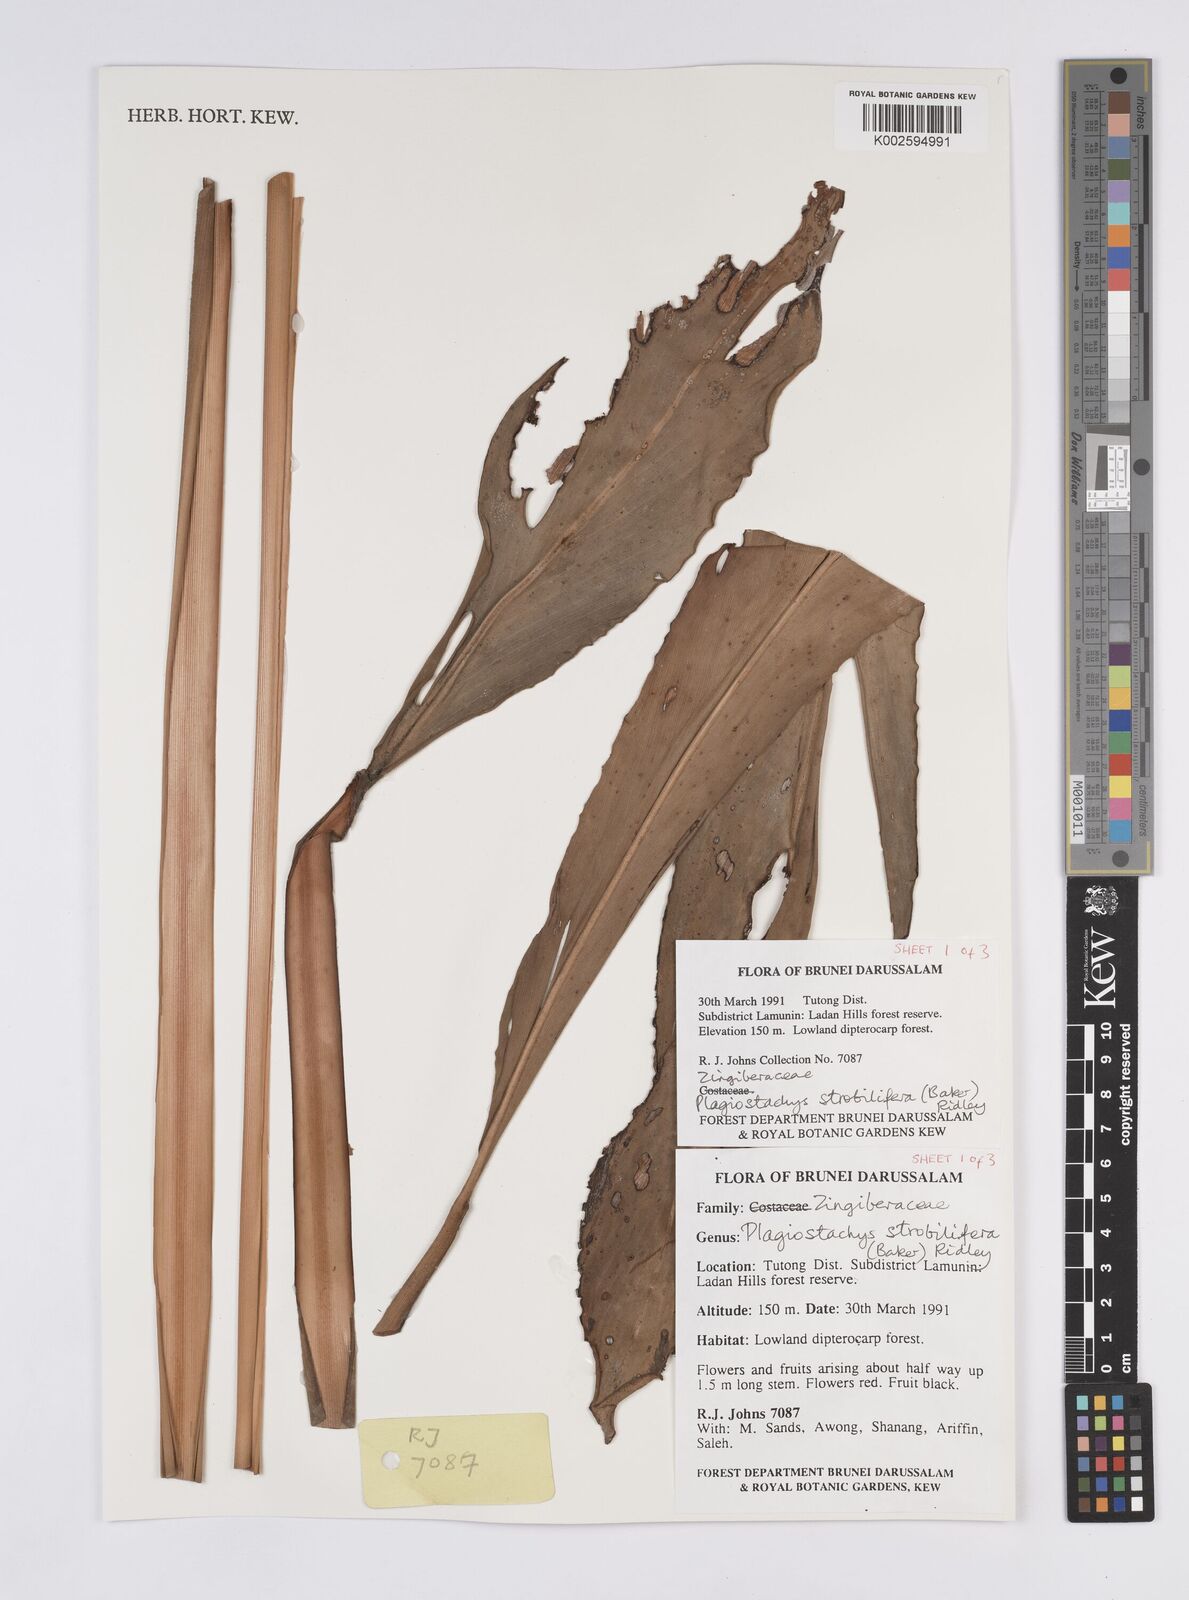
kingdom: Plantae
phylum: Tracheophyta
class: Liliopsida
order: Zingiberales
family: Zingiberaceae
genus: Plagiostachys
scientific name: Plagiostachys strobilifera
